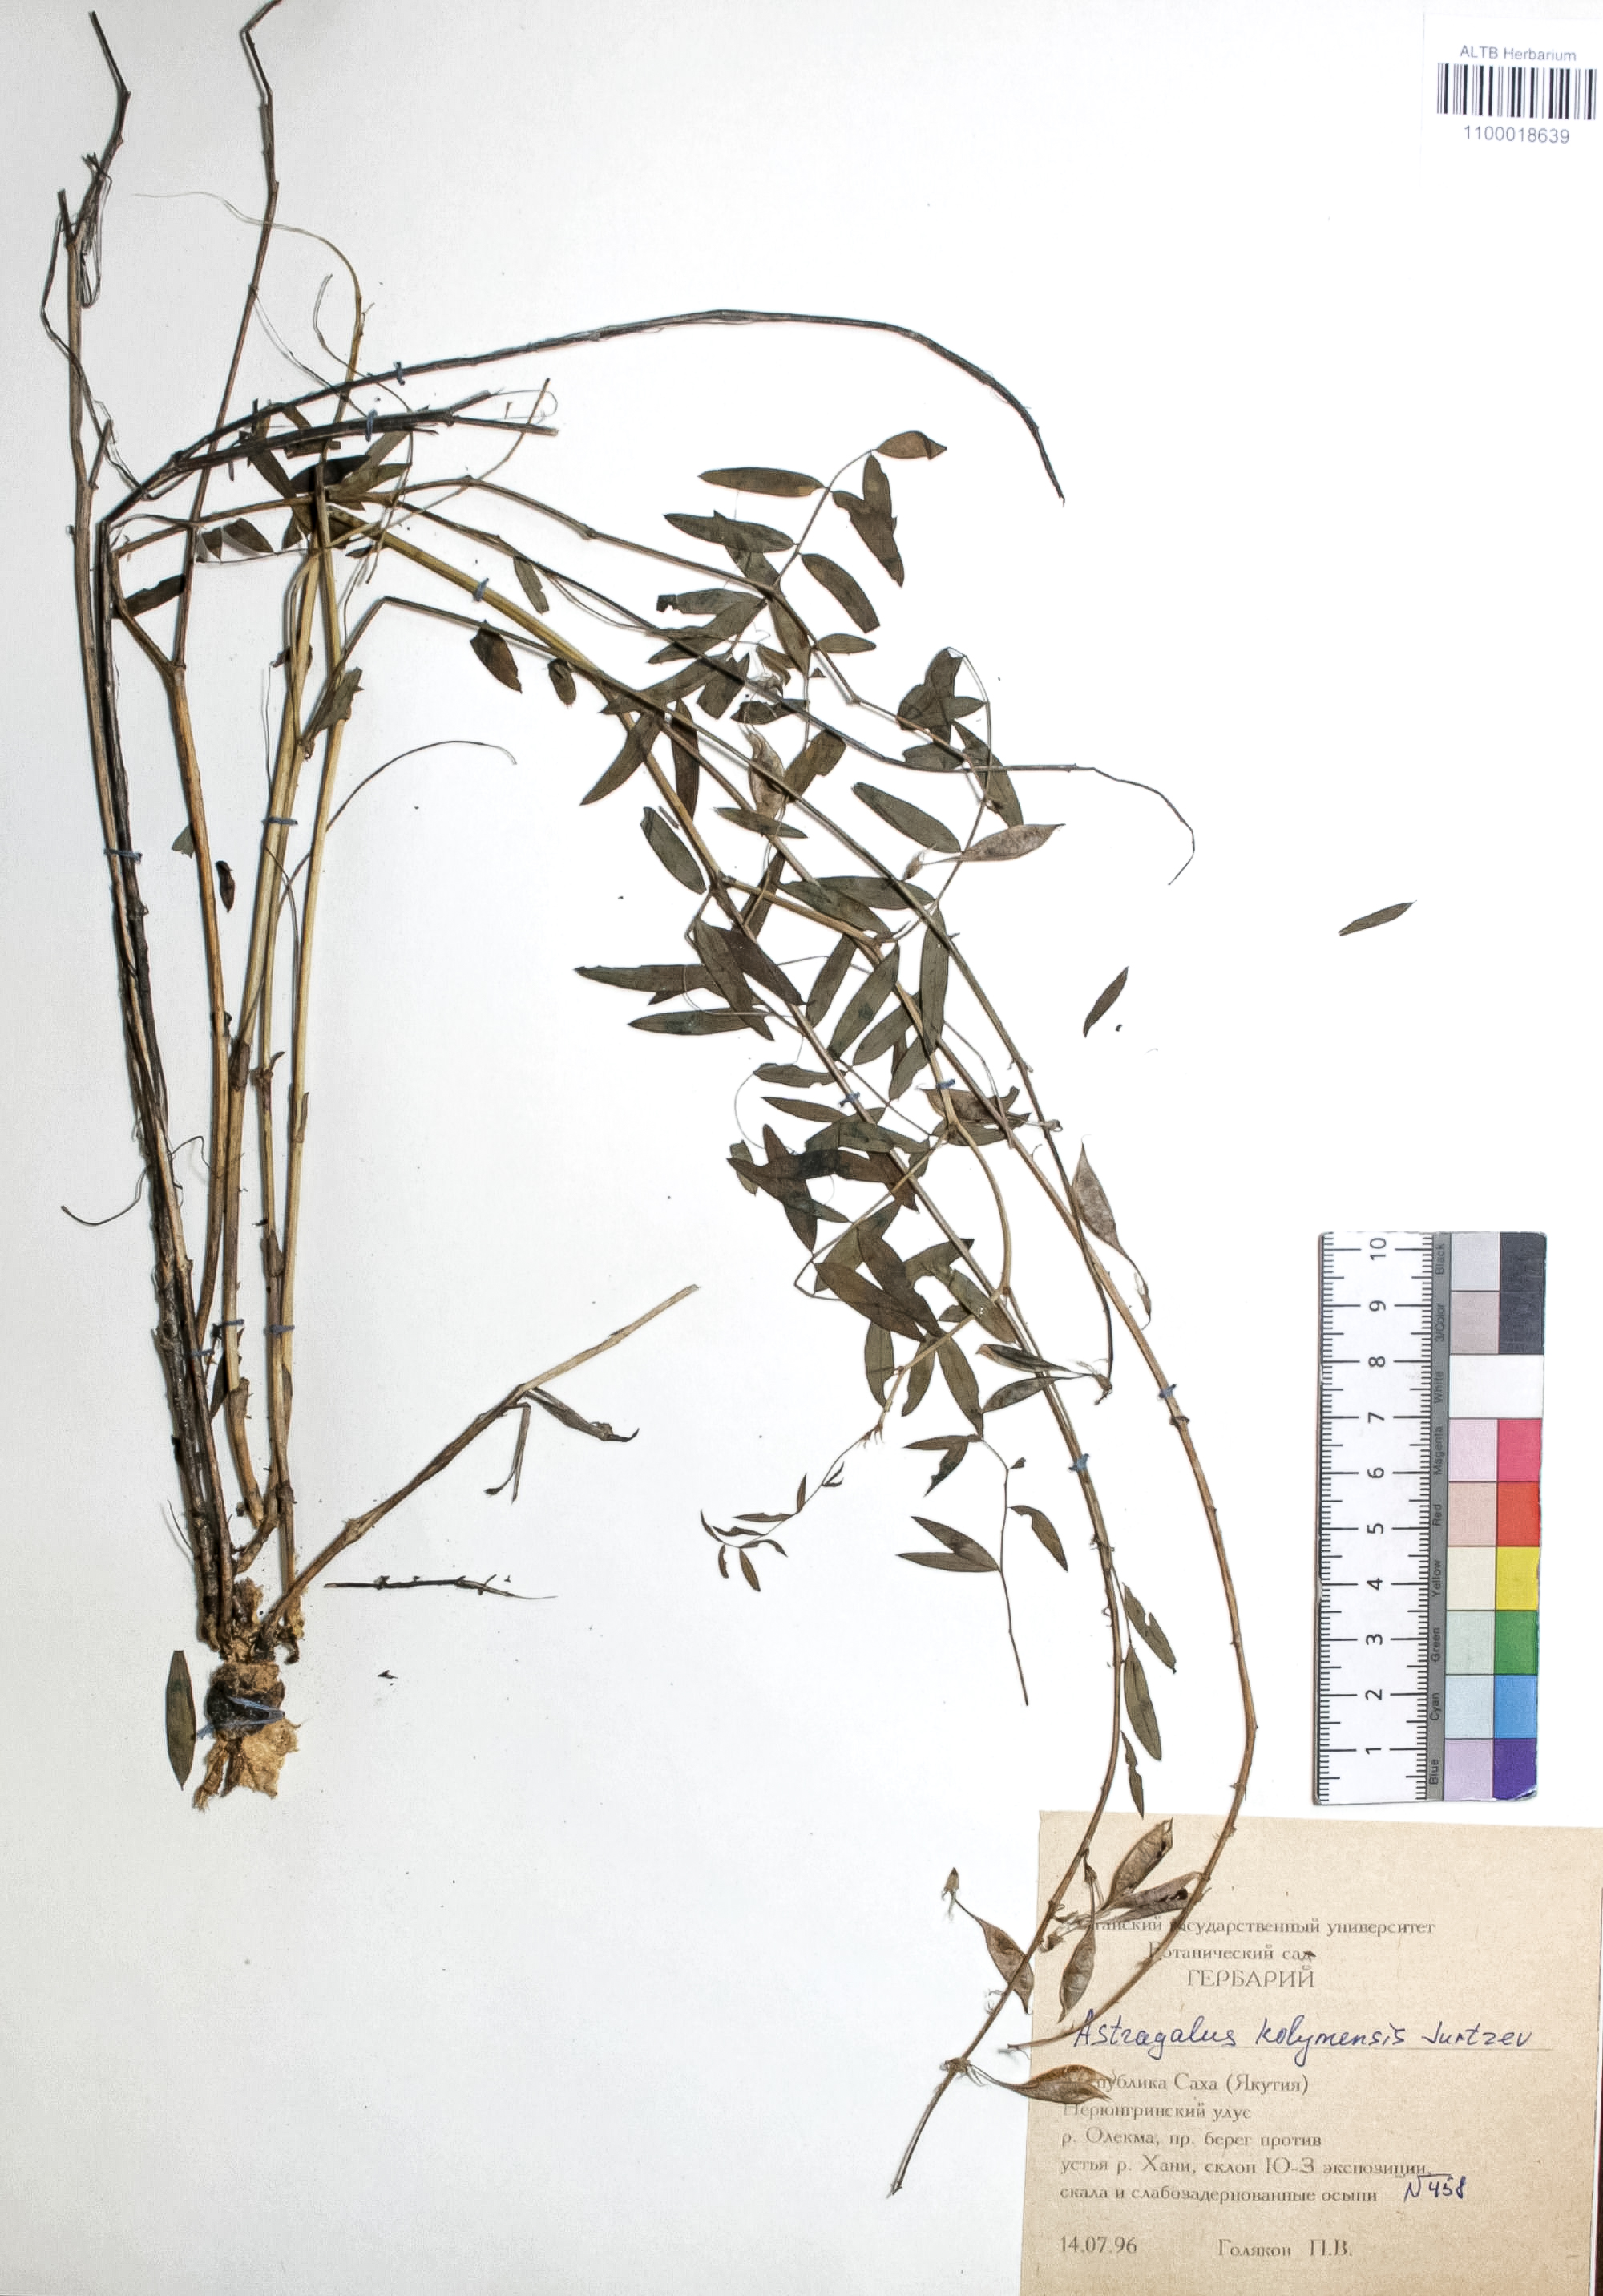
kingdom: Plantae
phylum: Tracheophyta
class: Magnoliopsida
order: Fabales
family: Fabaceae
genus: Astragalus
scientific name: Astragalus kolymensis
